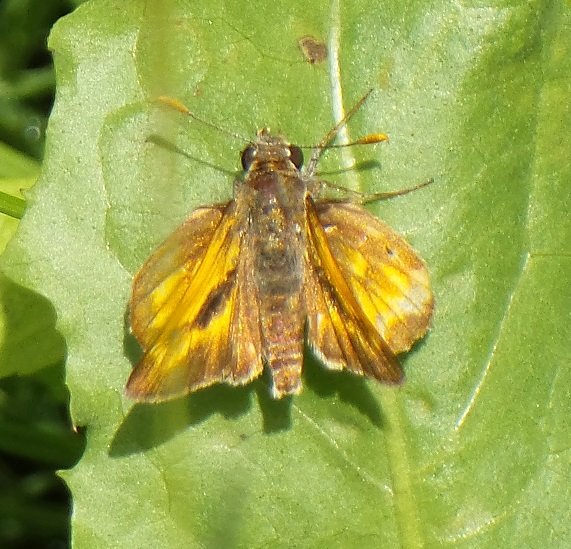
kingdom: Animalia
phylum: Arthropoda
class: Insecta
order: Lepidoptera
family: Hesperiidae
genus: Polites
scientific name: Polites
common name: Long Dash Skipper
